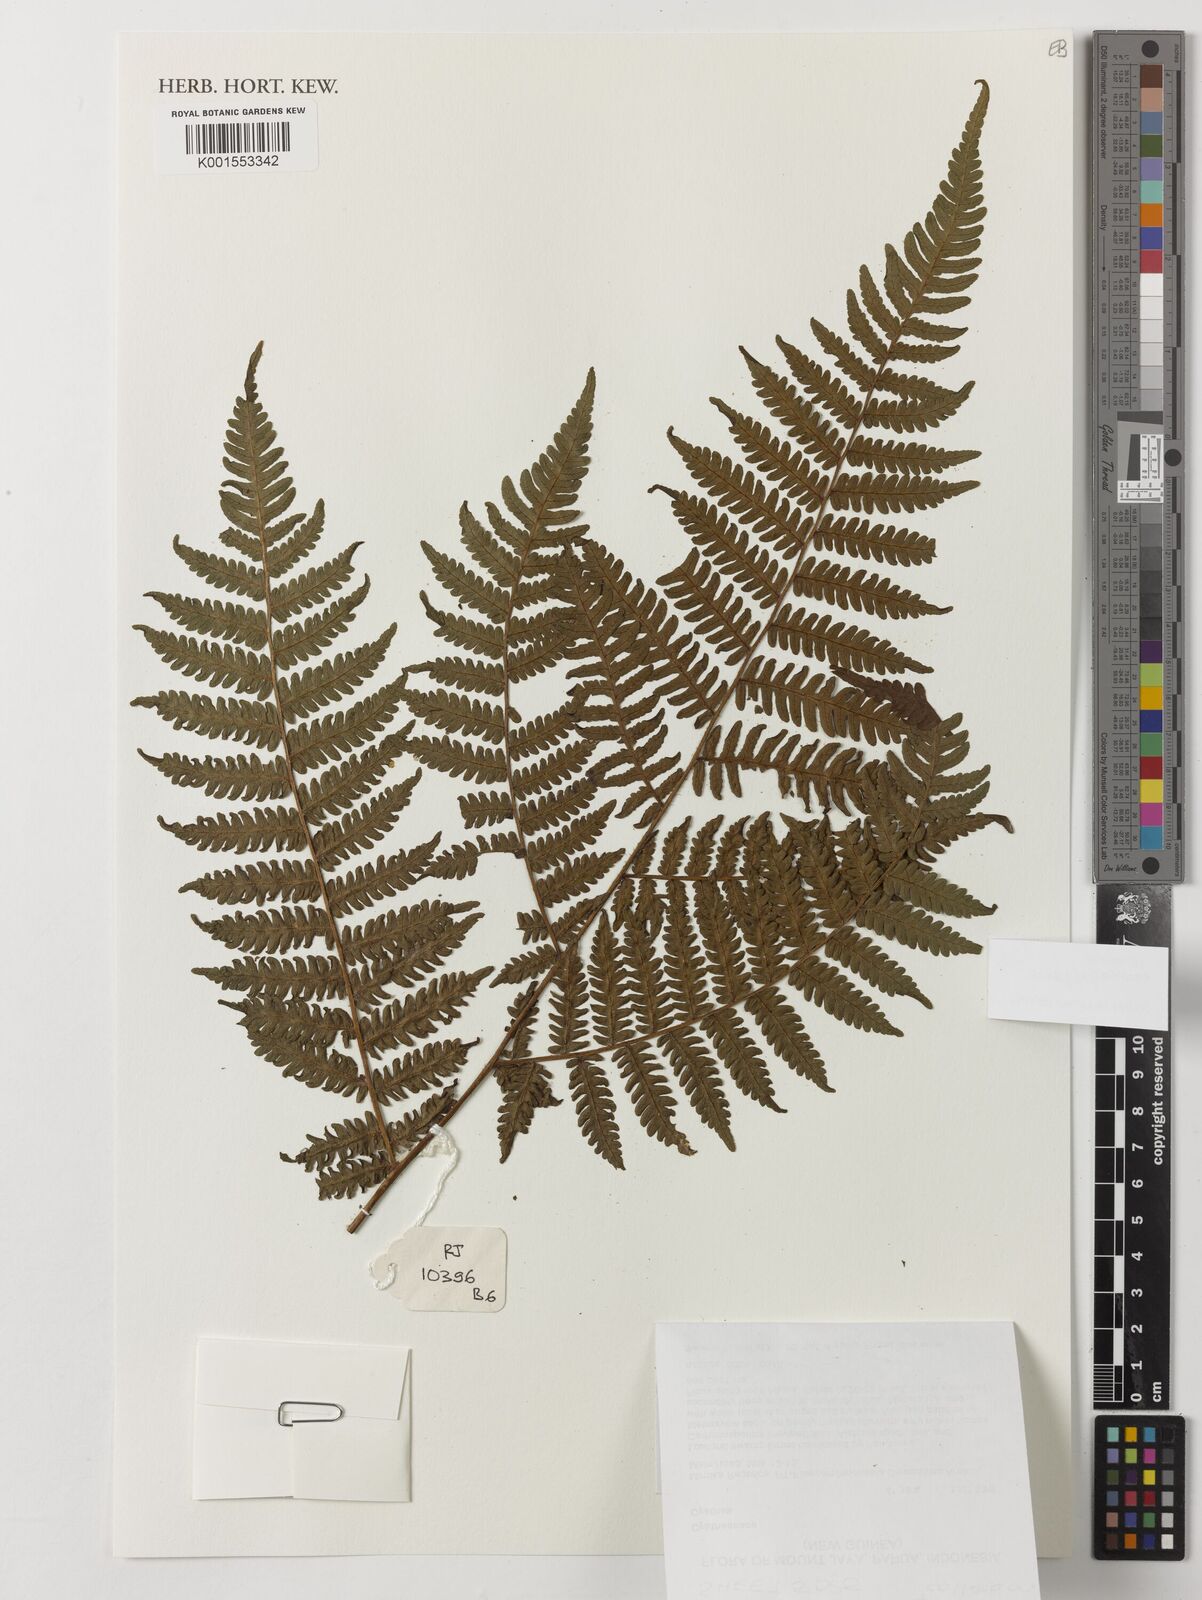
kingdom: Plantae
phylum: Tracheophyta
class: Polypodiopsida
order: Cyatheales
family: Cyatheaceae
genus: Alsophila
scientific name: Alsophila gregaria
